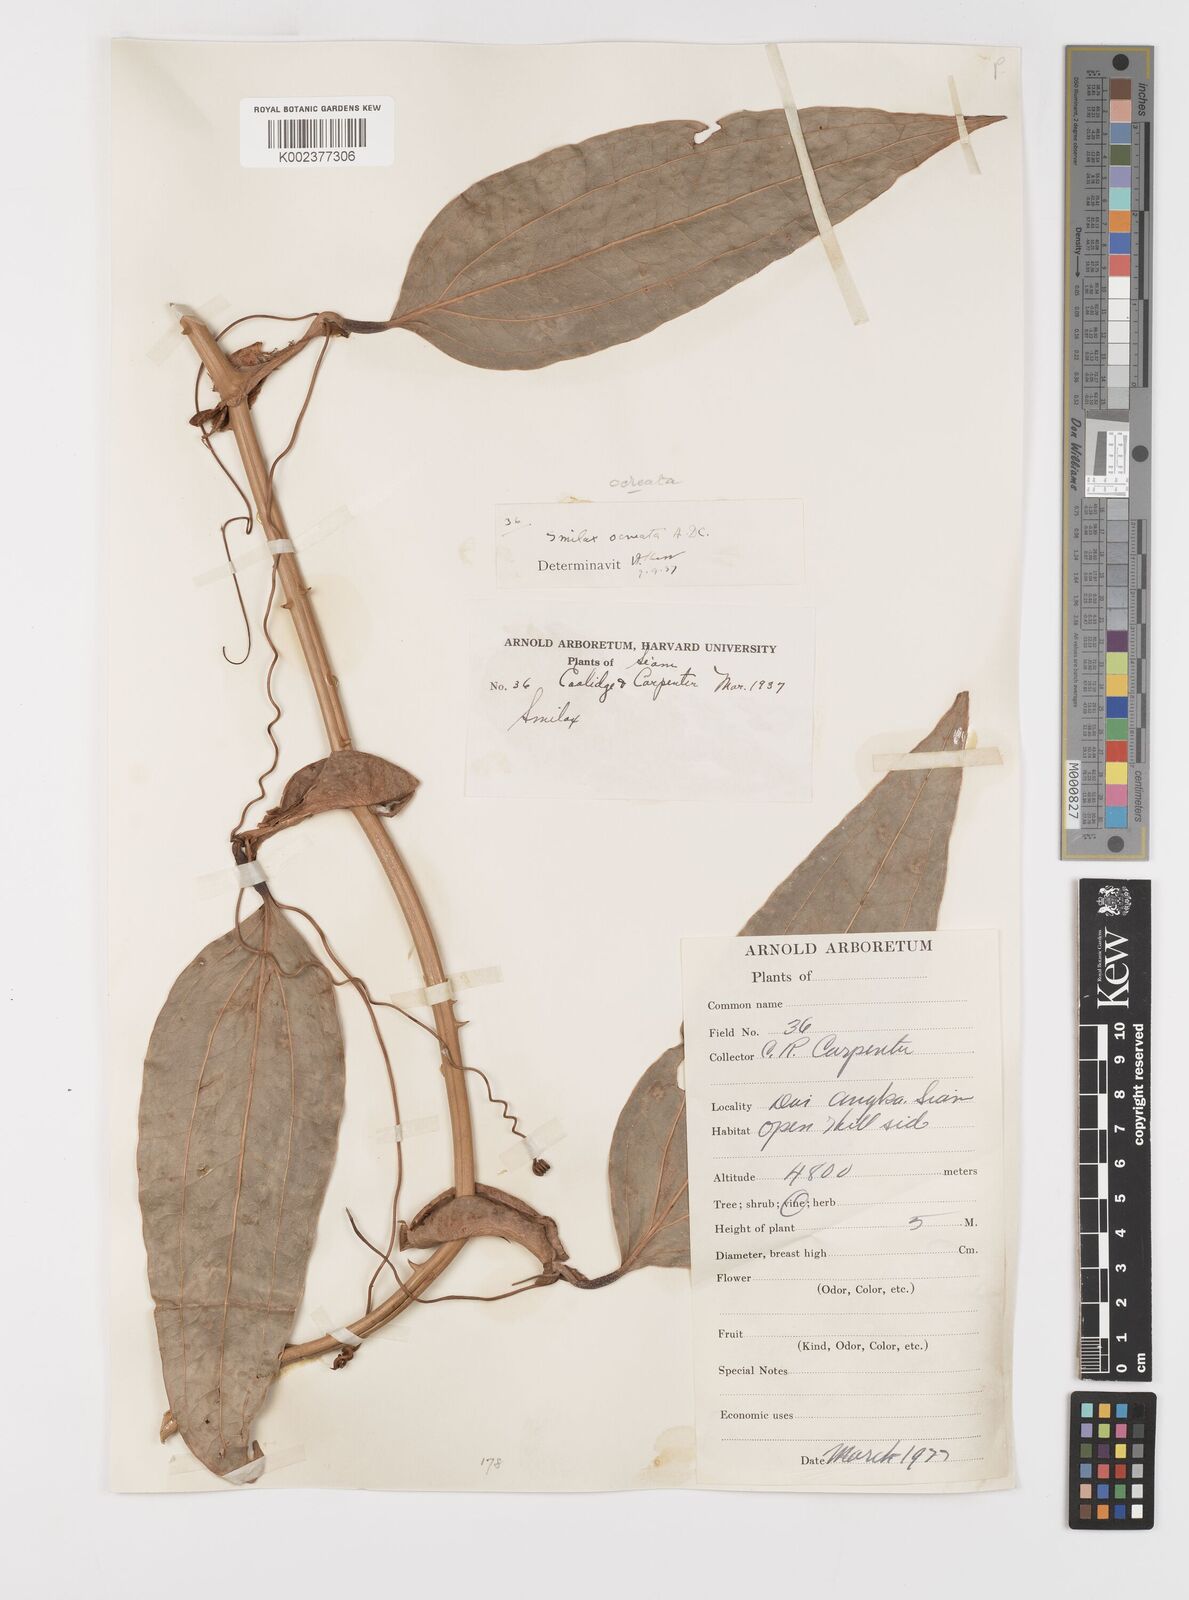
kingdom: Plantae
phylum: Tracheophyta
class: Liliopsida
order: Liliales
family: Smilacaceae
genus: Smilax
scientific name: Smilax ocreata
